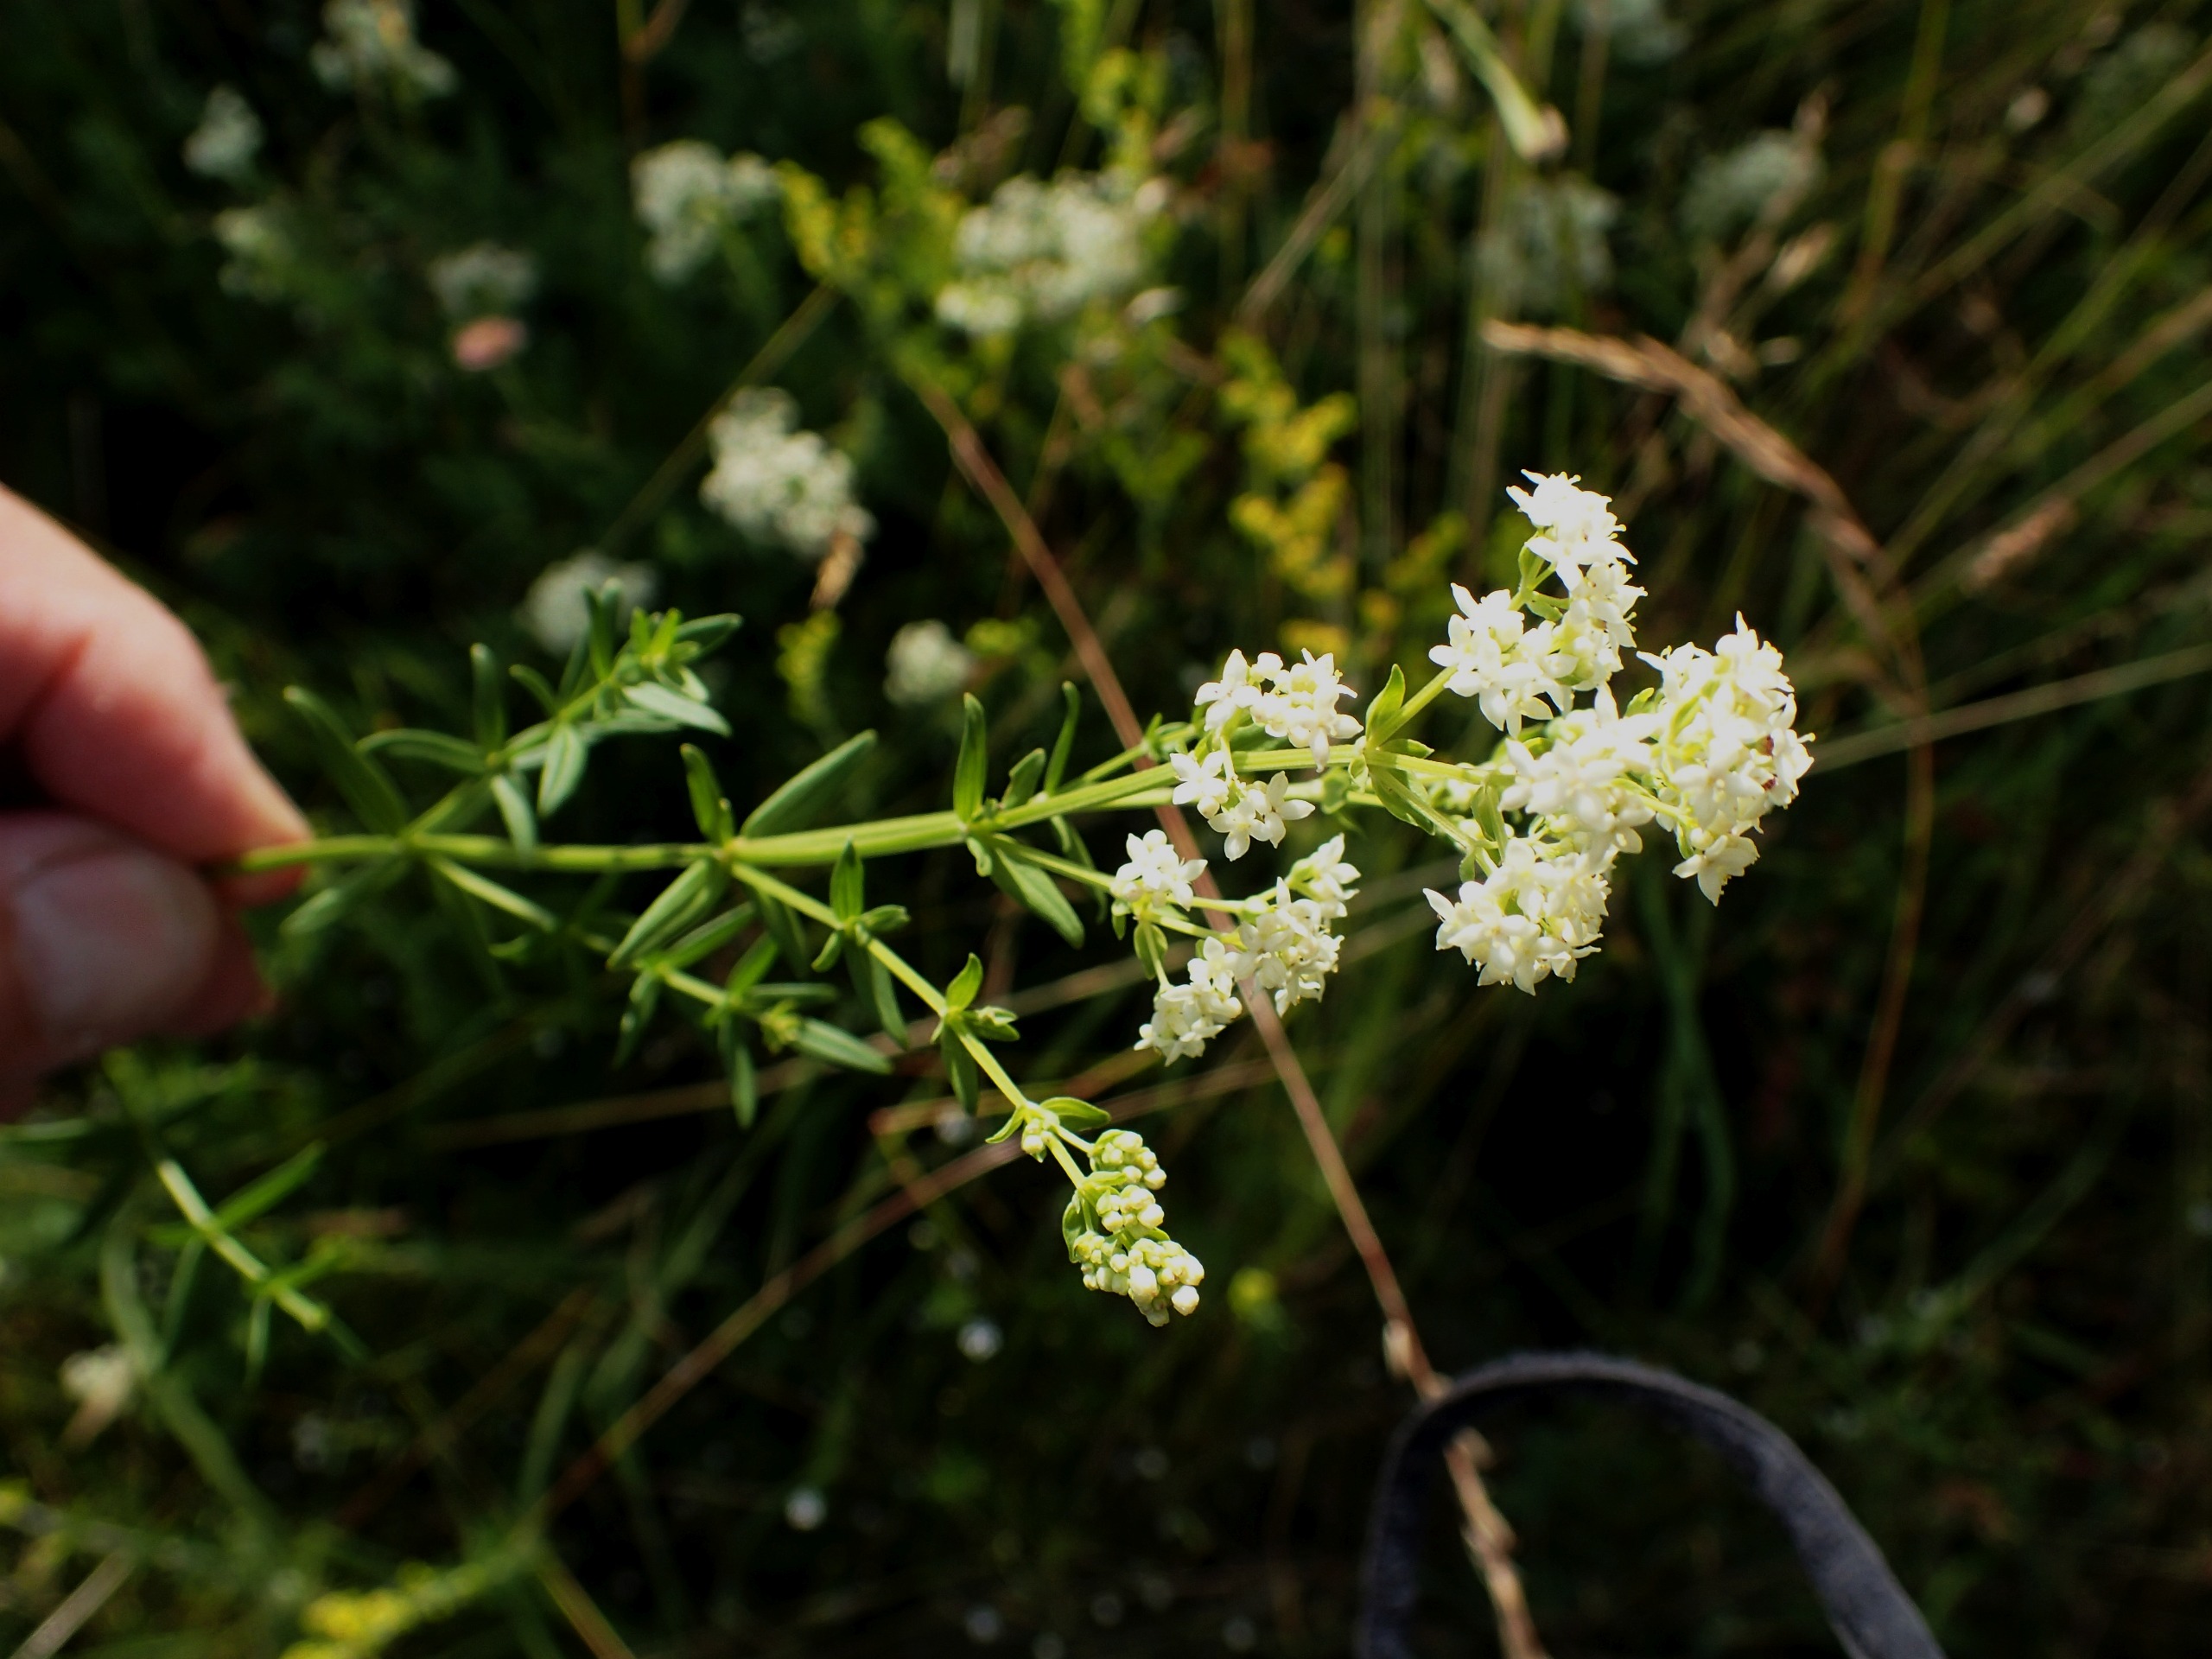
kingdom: Plantae
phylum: Tracheophyta
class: Magnoliopsida
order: Gentianales
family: Rubiaceae
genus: Galium
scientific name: Galium boreale
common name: Trenervet snerre
